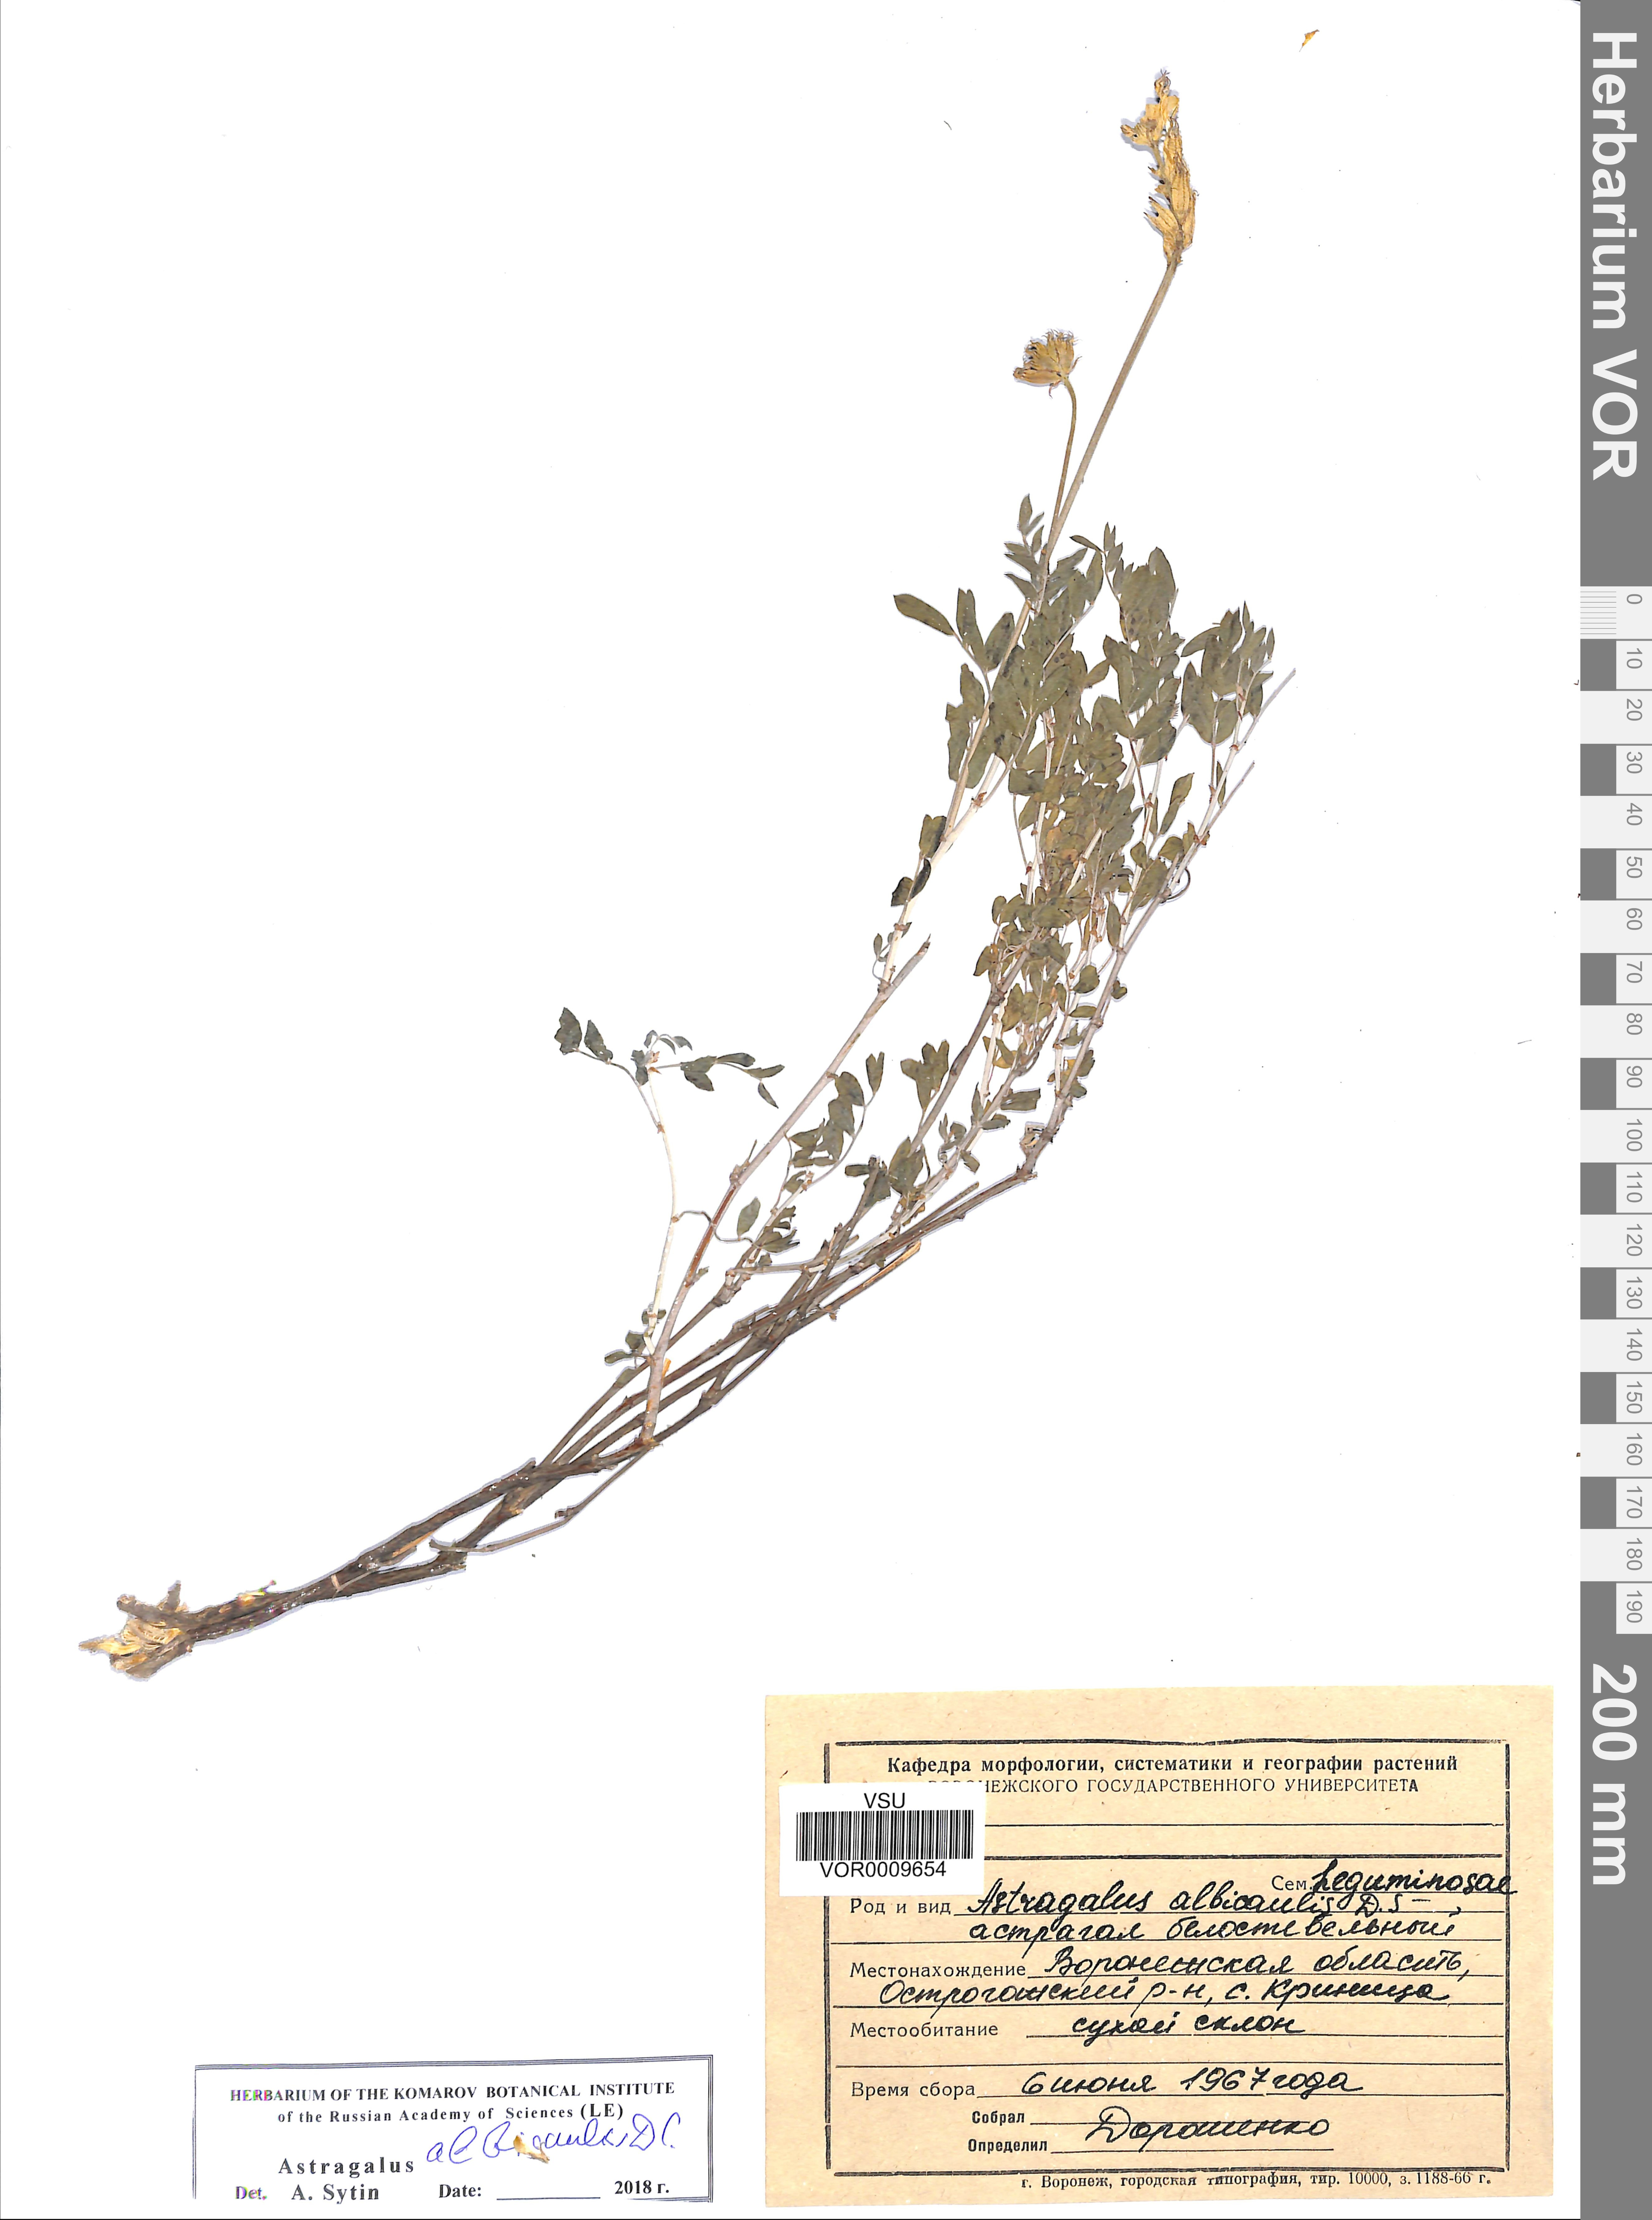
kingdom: Plantae
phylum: Tracheophyta
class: Magnoliopsida
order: Fabales
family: Fabaceae
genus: Astragalus
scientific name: Astragalus albicaulis
